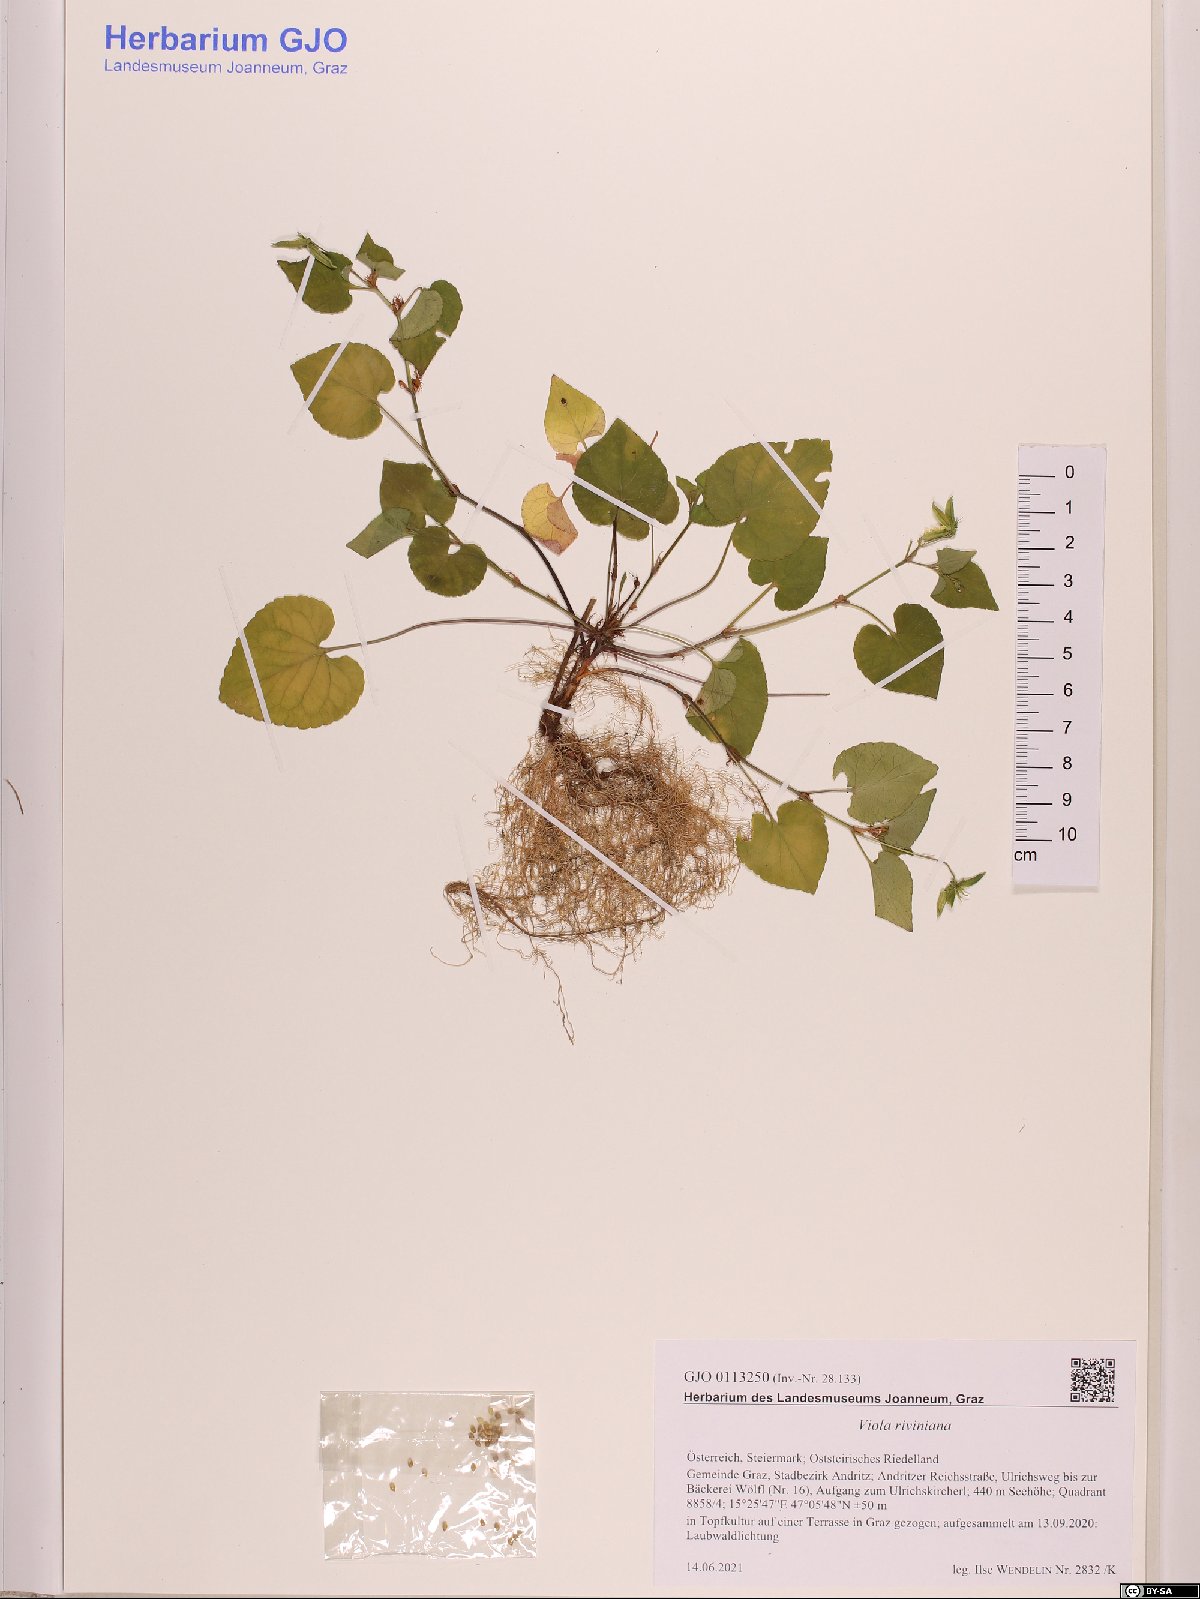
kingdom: Plantae
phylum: Tracheophyta
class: Magnoliopsida
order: Malpighiales
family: Violaceae
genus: Viola
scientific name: Viola riviniana
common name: Common dog-violet
